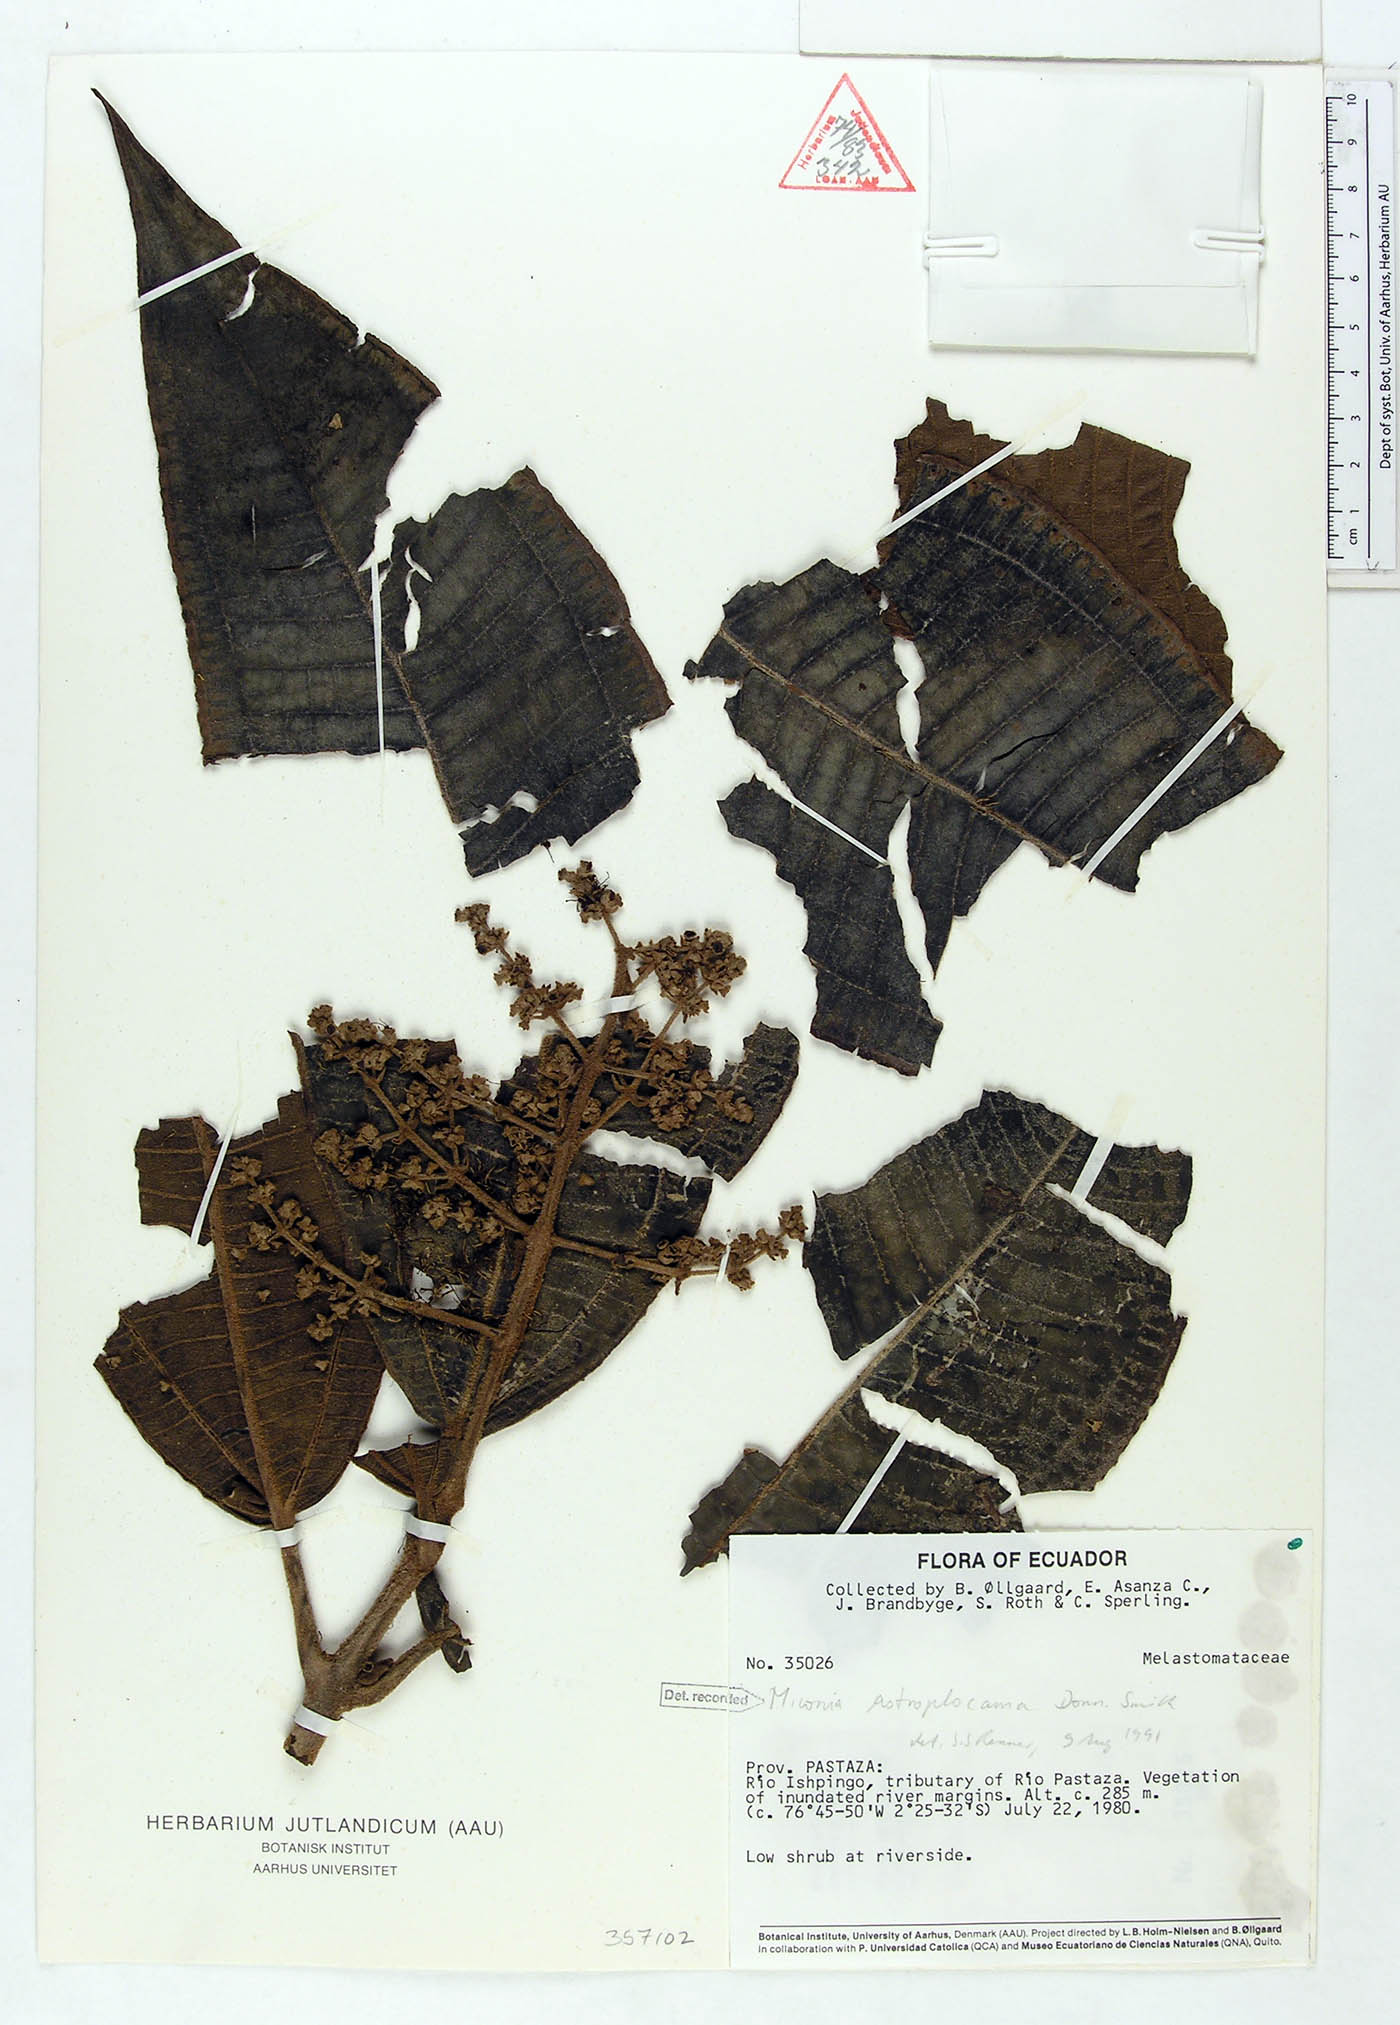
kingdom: Plantae
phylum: Tracheophyta
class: Magnoliopsida
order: Myrtales
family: Melastomataceae
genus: Miconia
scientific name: Miconia astroplocama
